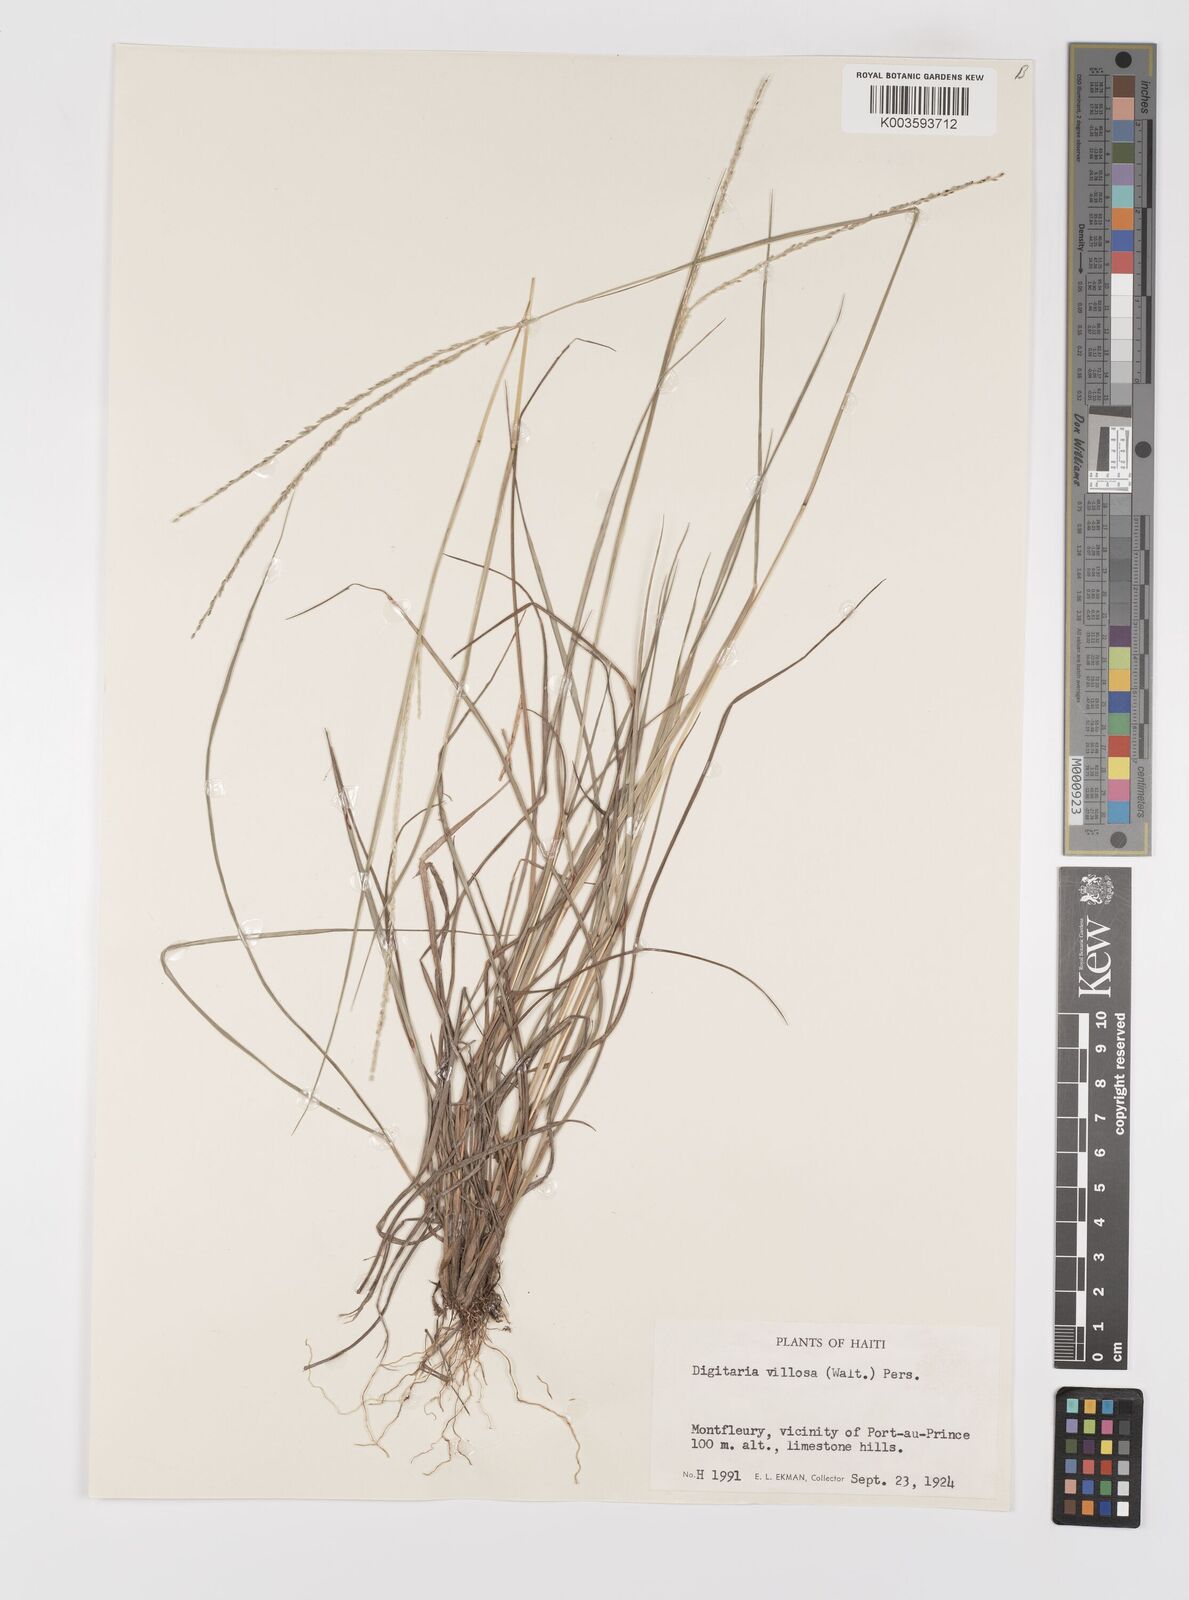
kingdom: Plantae
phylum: Tracheophyta
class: Liliopsida
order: Poales
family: Poaceae
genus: Digitaria
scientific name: Digitaria villosa
